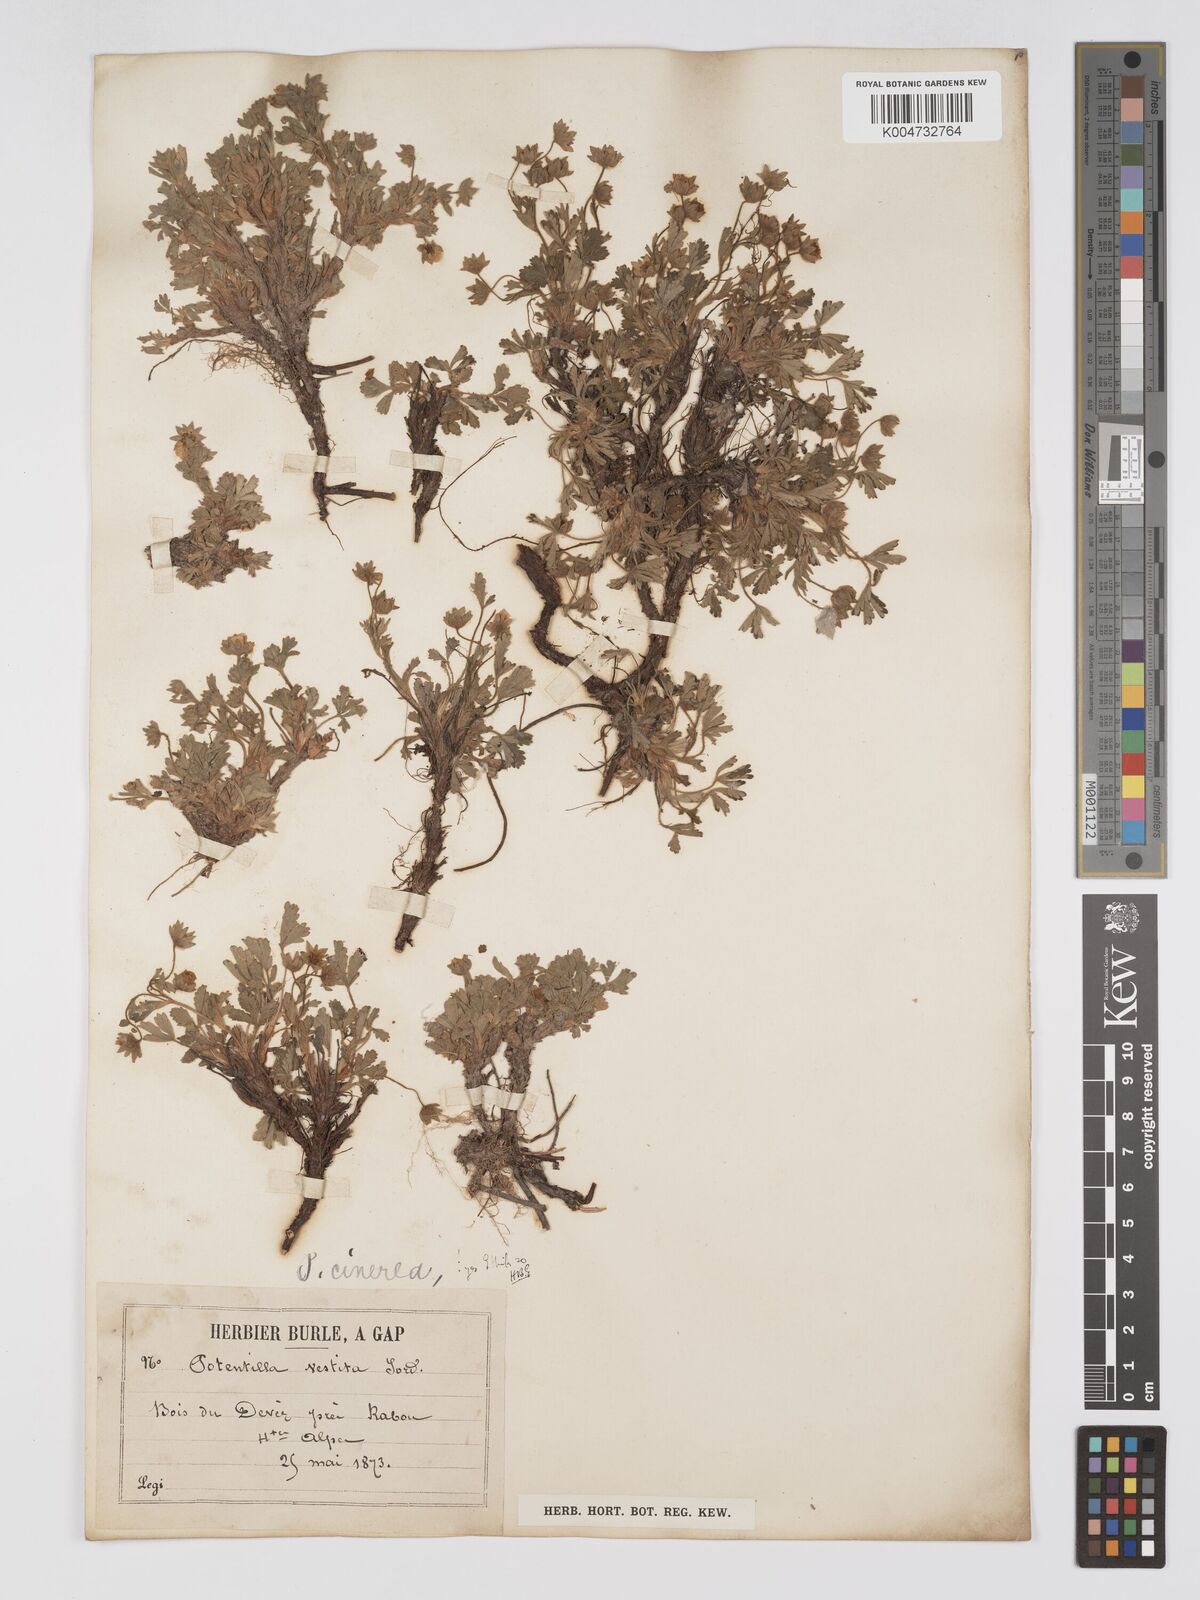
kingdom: Plantae
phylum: Tracheophyta
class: Magnoliopsida
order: Rosales
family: Rosaceae
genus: Potentilla
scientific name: Potentilla
